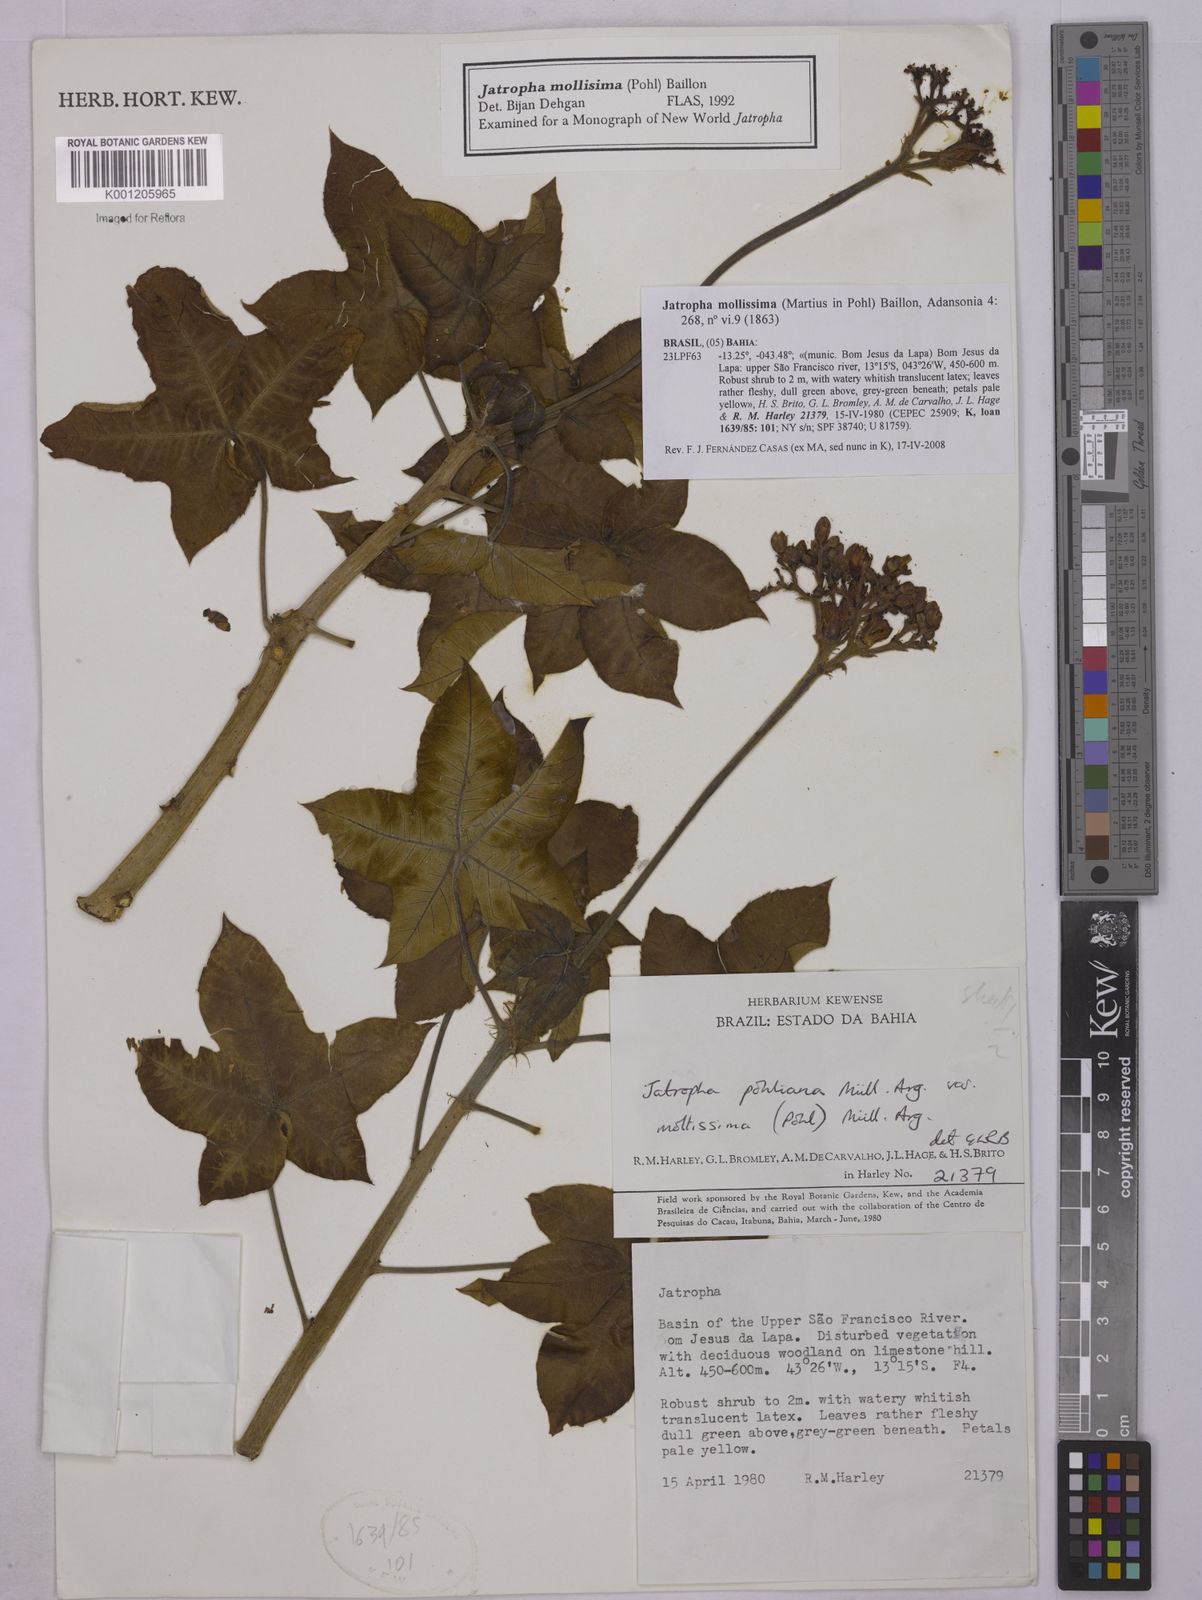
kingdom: Plantae
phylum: Tracheophyta
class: Magnoliopsida
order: Malpighiales
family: Euphorbiaceae
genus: Jatropha
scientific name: Jatropha mollissima
